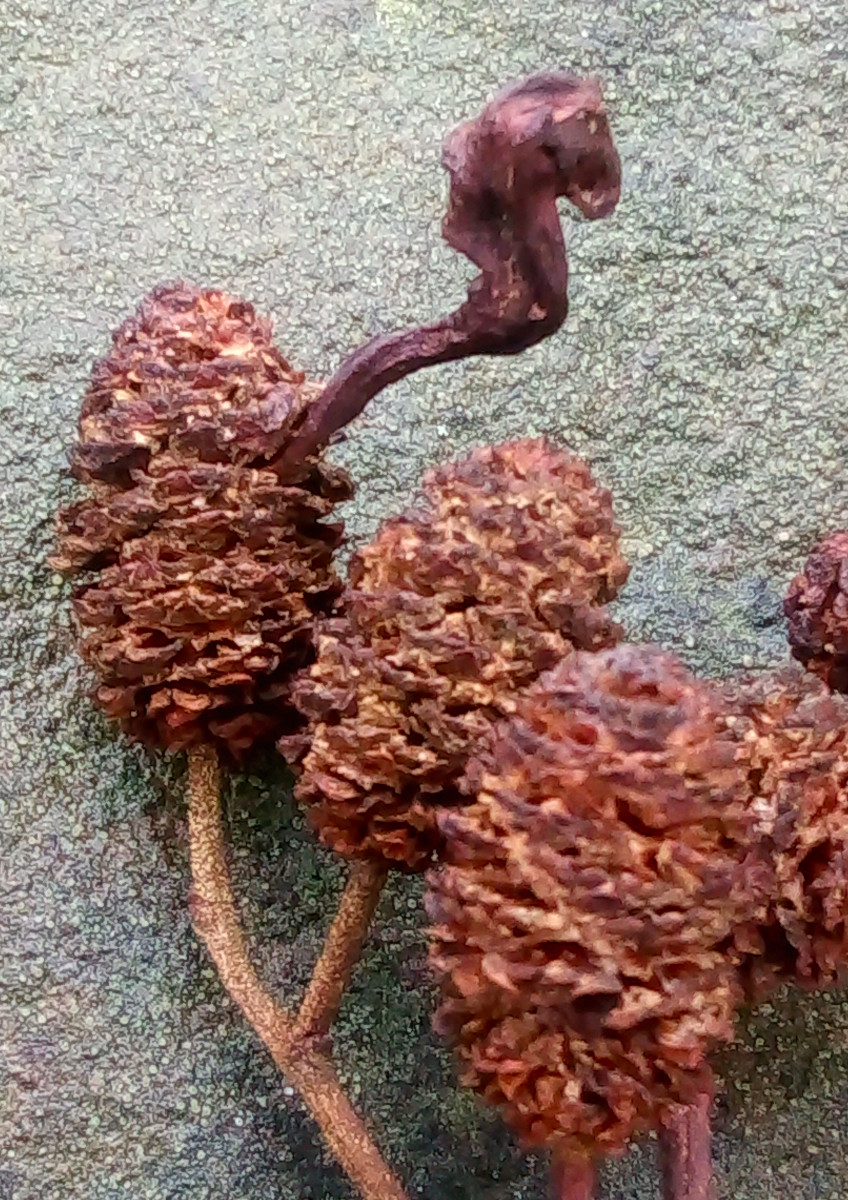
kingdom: Fungi
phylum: Ascomycota
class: Taphrinomycetes
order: Taphrinales
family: Taphrinaceae
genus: Taphrina
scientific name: Taphrina alni
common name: Alder tongue
